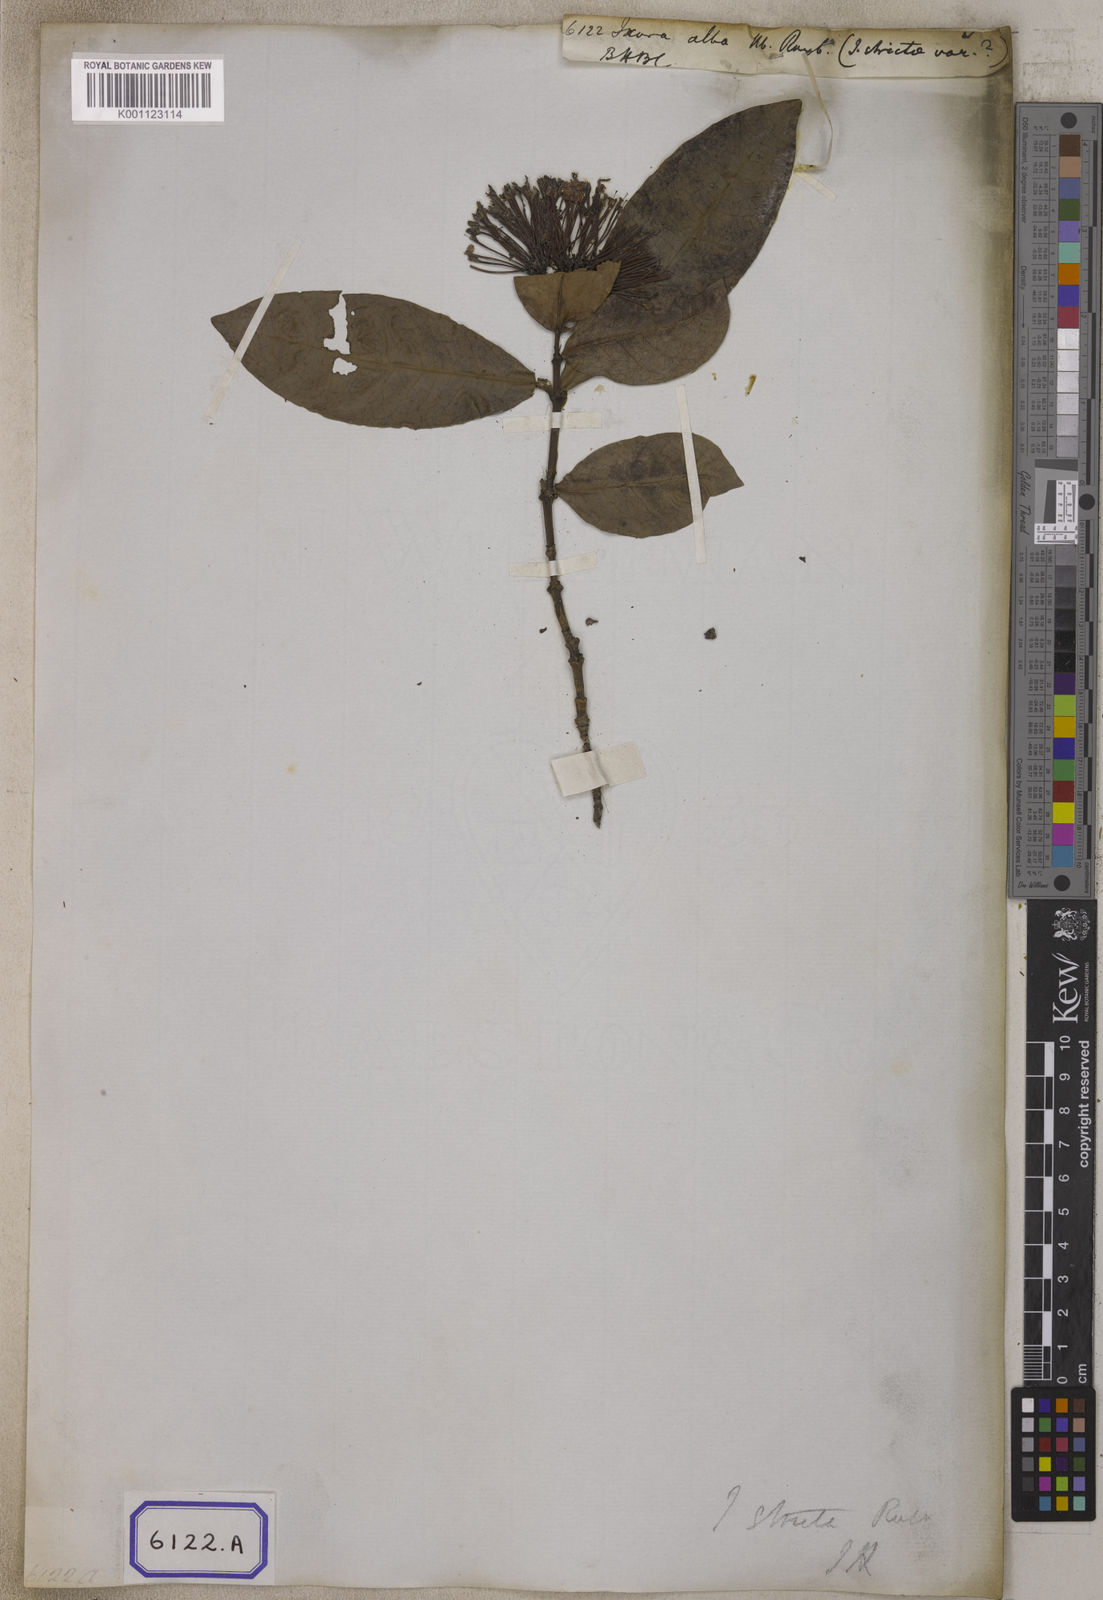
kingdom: Plantae
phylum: Tracheophyta
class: Magnoliopsida
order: Gentianales
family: Rubiaceae
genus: Ixora
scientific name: Ixora alba
